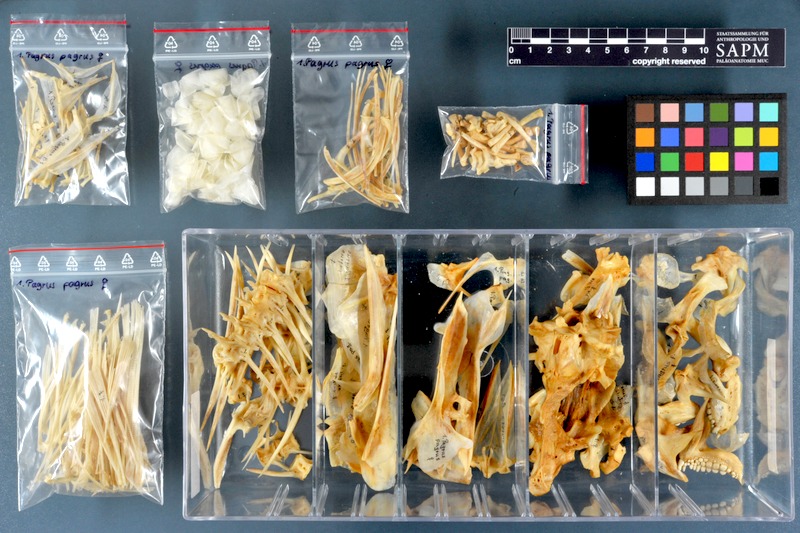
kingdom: Animalia
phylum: Chordata
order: Perciformes
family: Sparidae
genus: Pagrus
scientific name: Pagrus pagrus
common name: Red porgy
